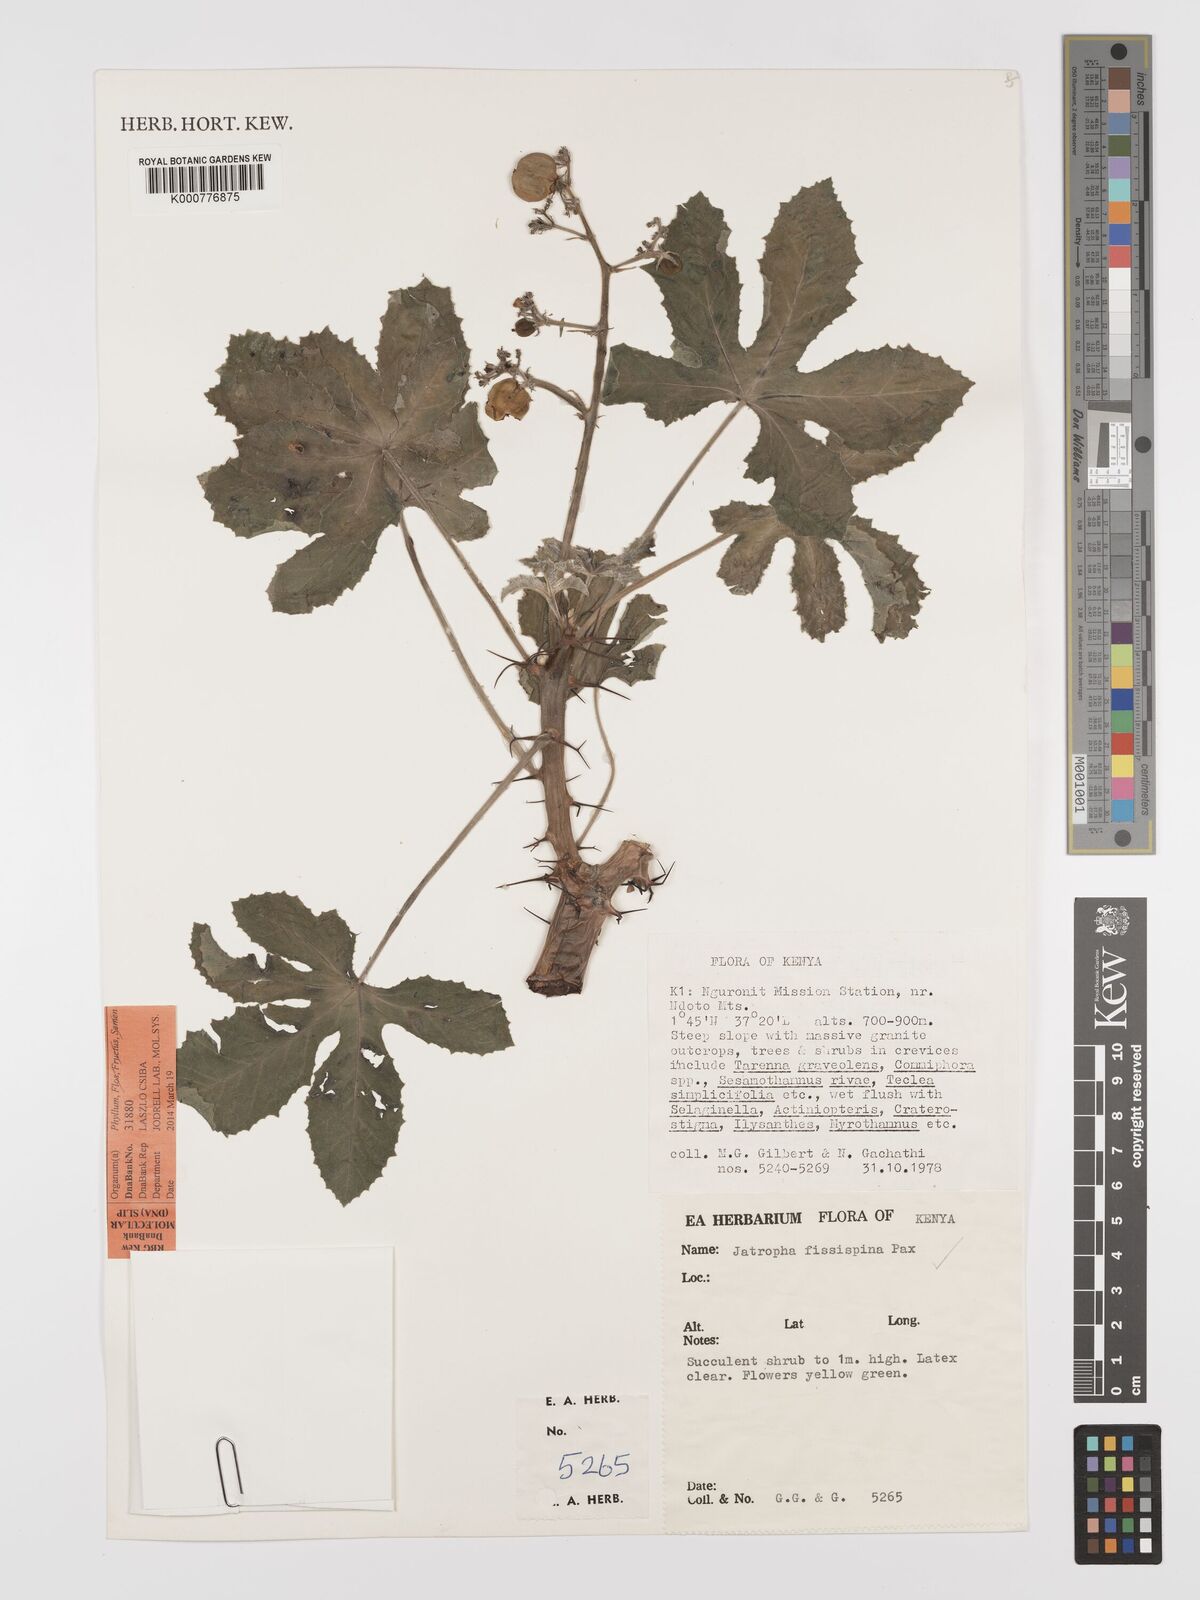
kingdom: Plantae
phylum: Tracheophyta
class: Magnoliopsida
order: Malpighiales
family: Euphorbiaceae
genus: Jatropha
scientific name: Jatropha ellenbeckii
